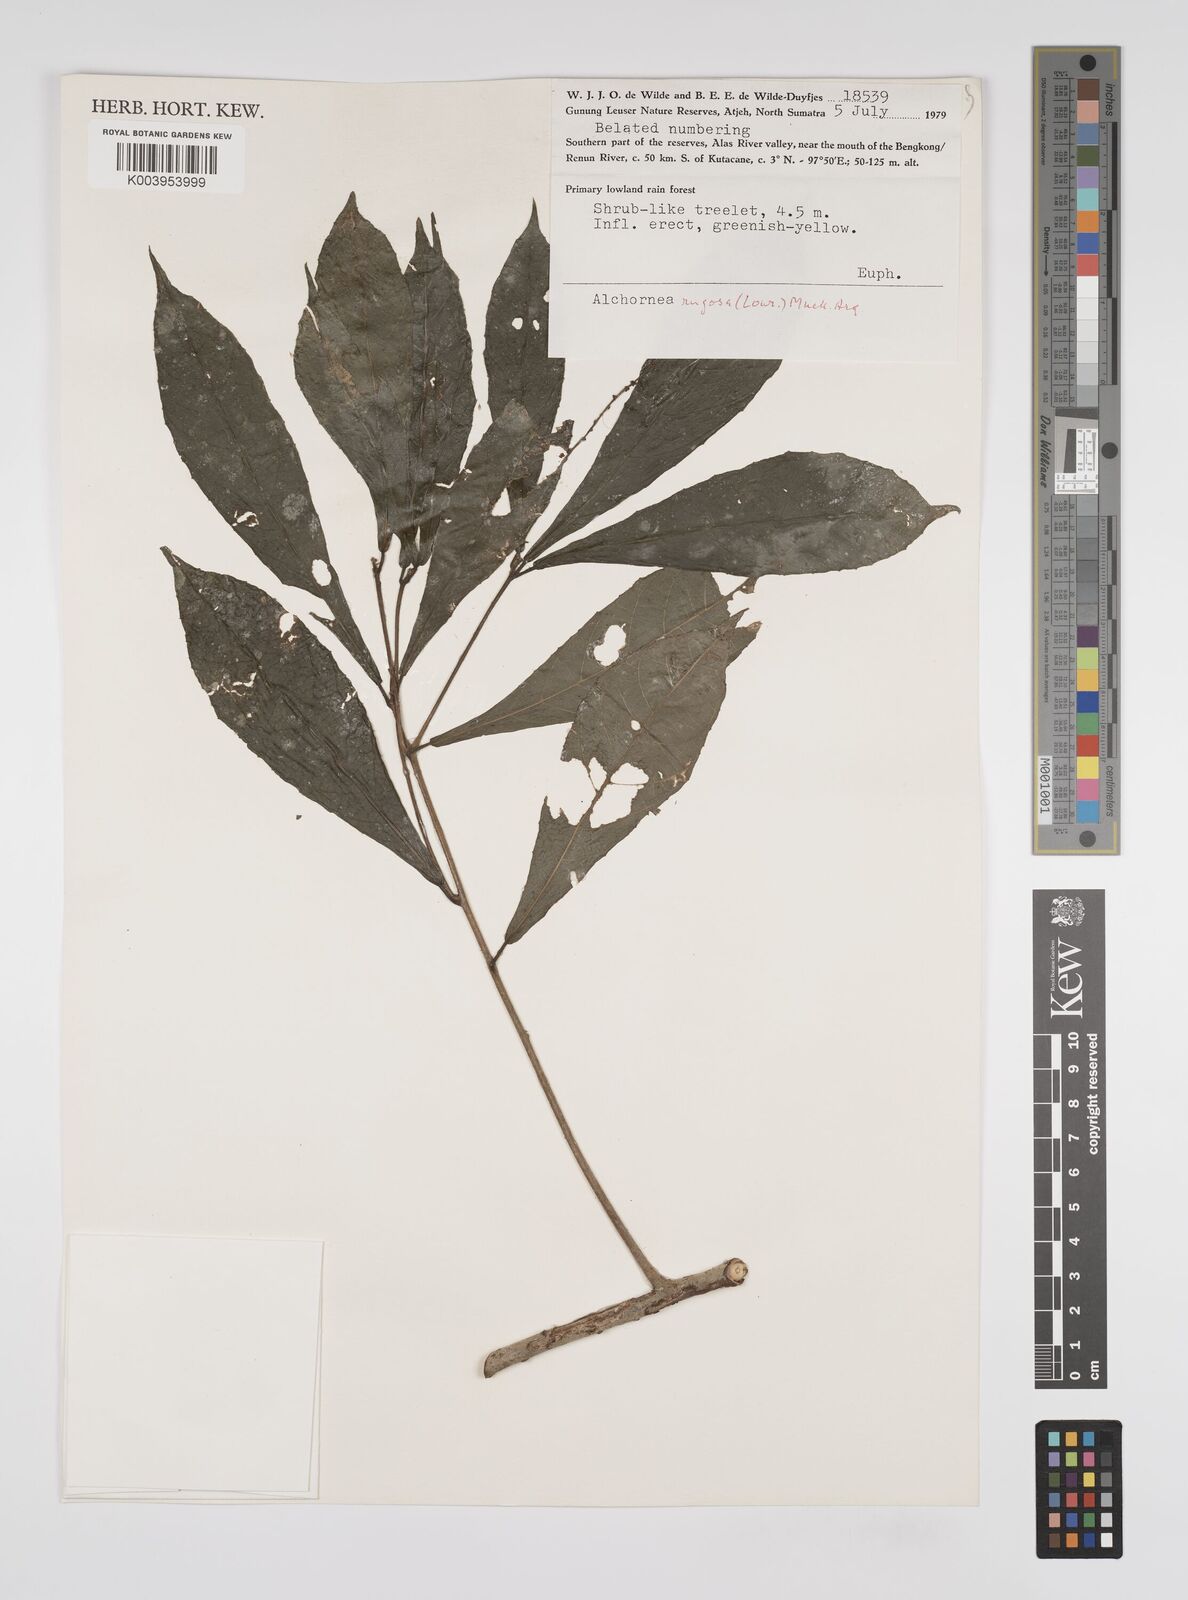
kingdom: Plantae
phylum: Tracheophyta
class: Magnoliopsida
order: Malpighiales
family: Euphorbiaceae
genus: Alchornea
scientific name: Alchornea rugosa
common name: Alchorntree
